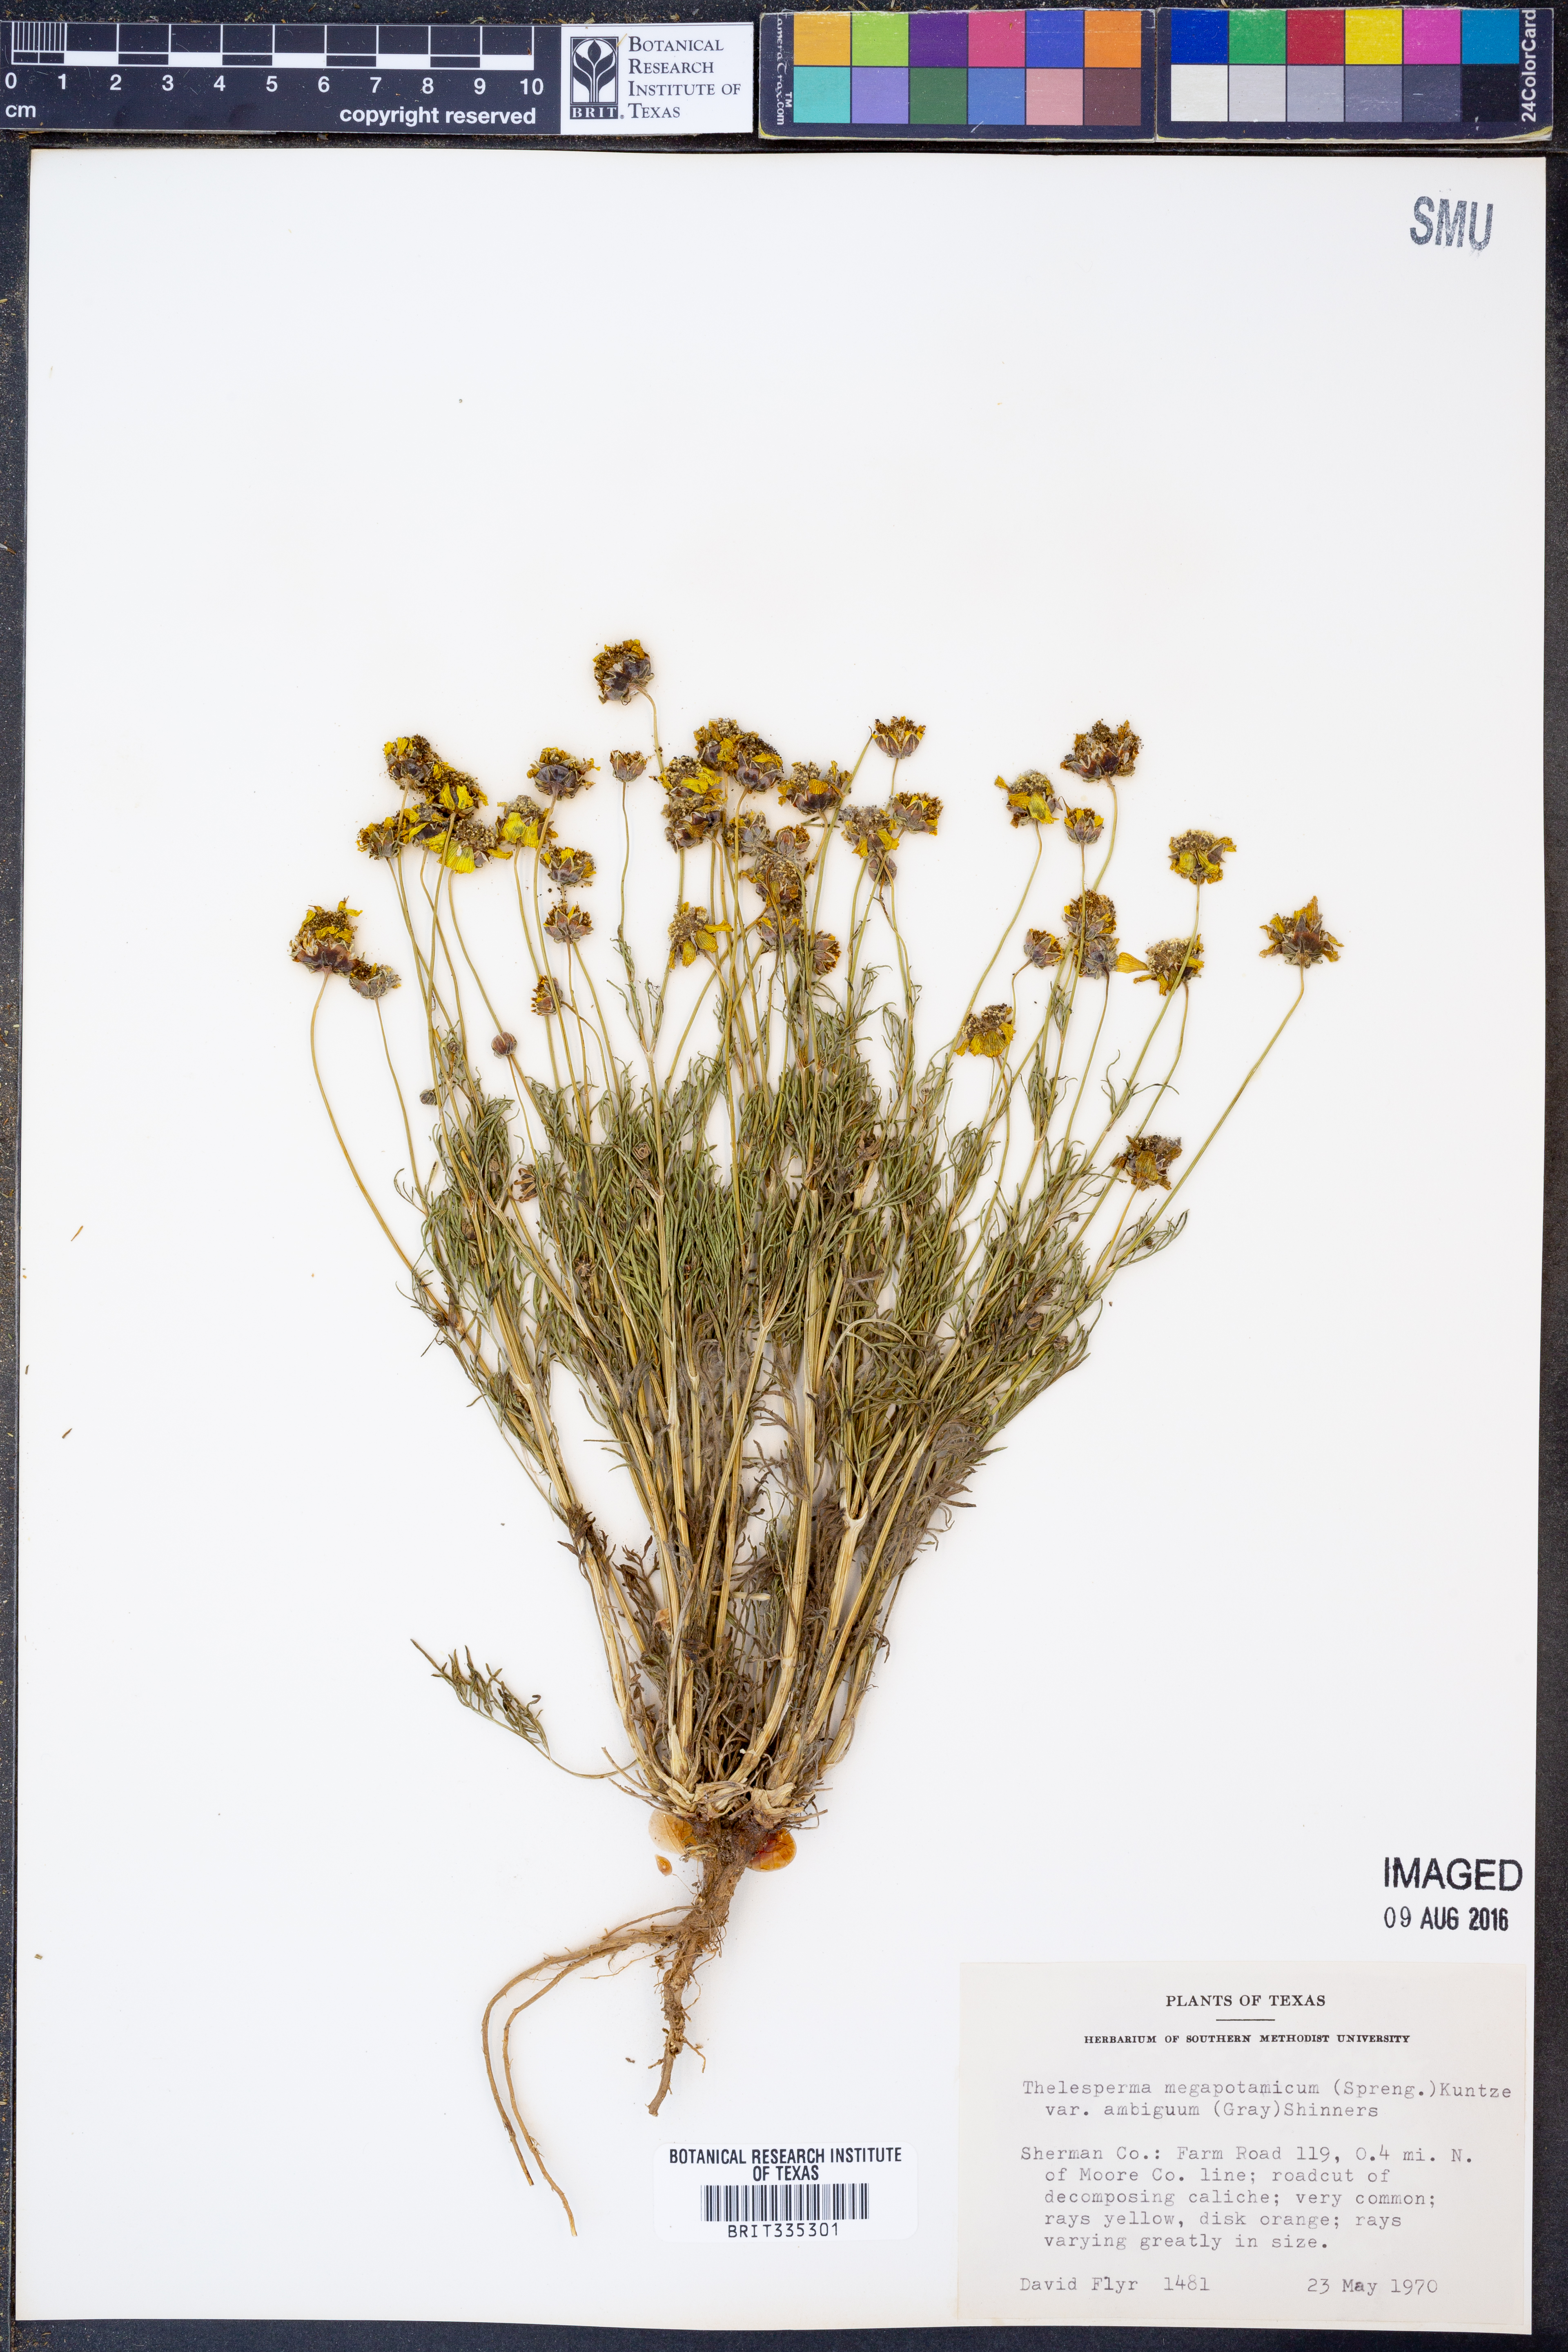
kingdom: Plantae
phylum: Tracheophyta
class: Magnoliopsida
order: Asterales
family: Asteraceae
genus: Thelesperma
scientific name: Thelesperma ambiguum
